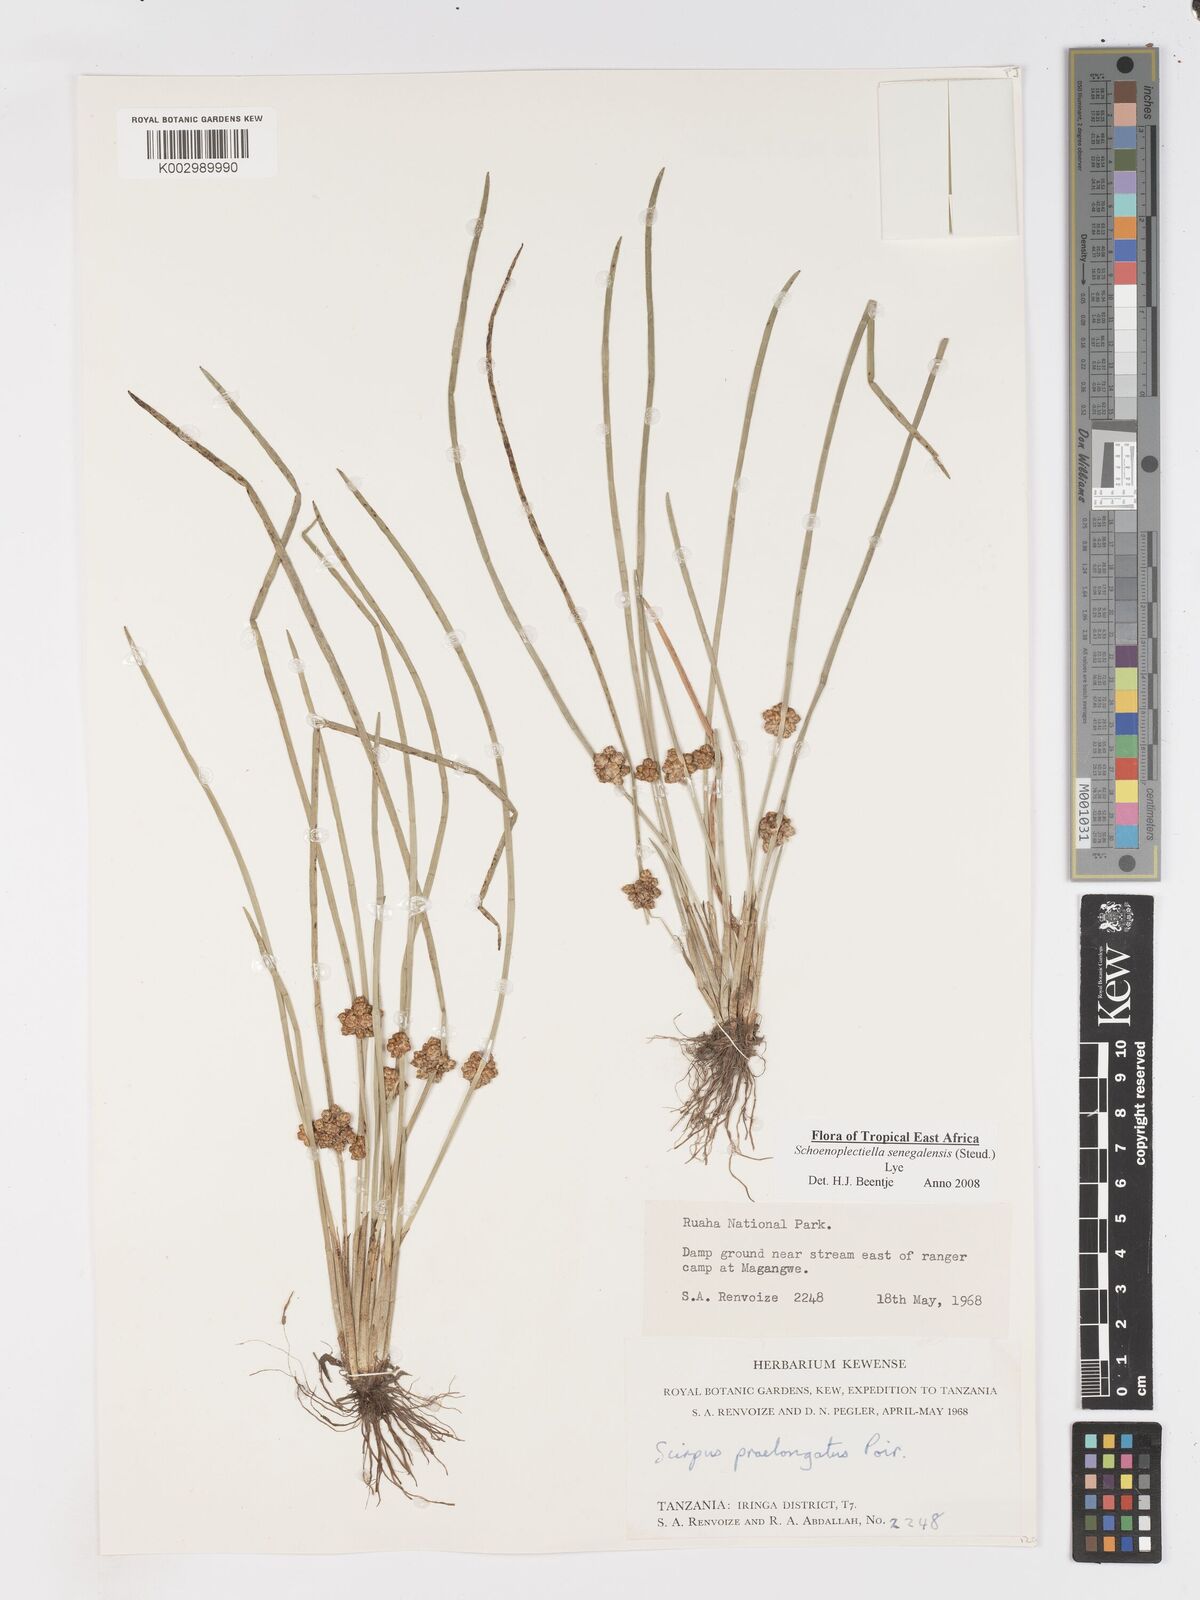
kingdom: Plantae
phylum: Tracheophyta
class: Liliopsida
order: Poales
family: Cyperaceae
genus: Schoenoplectiella
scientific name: Schoenoplectiella senegalensis
